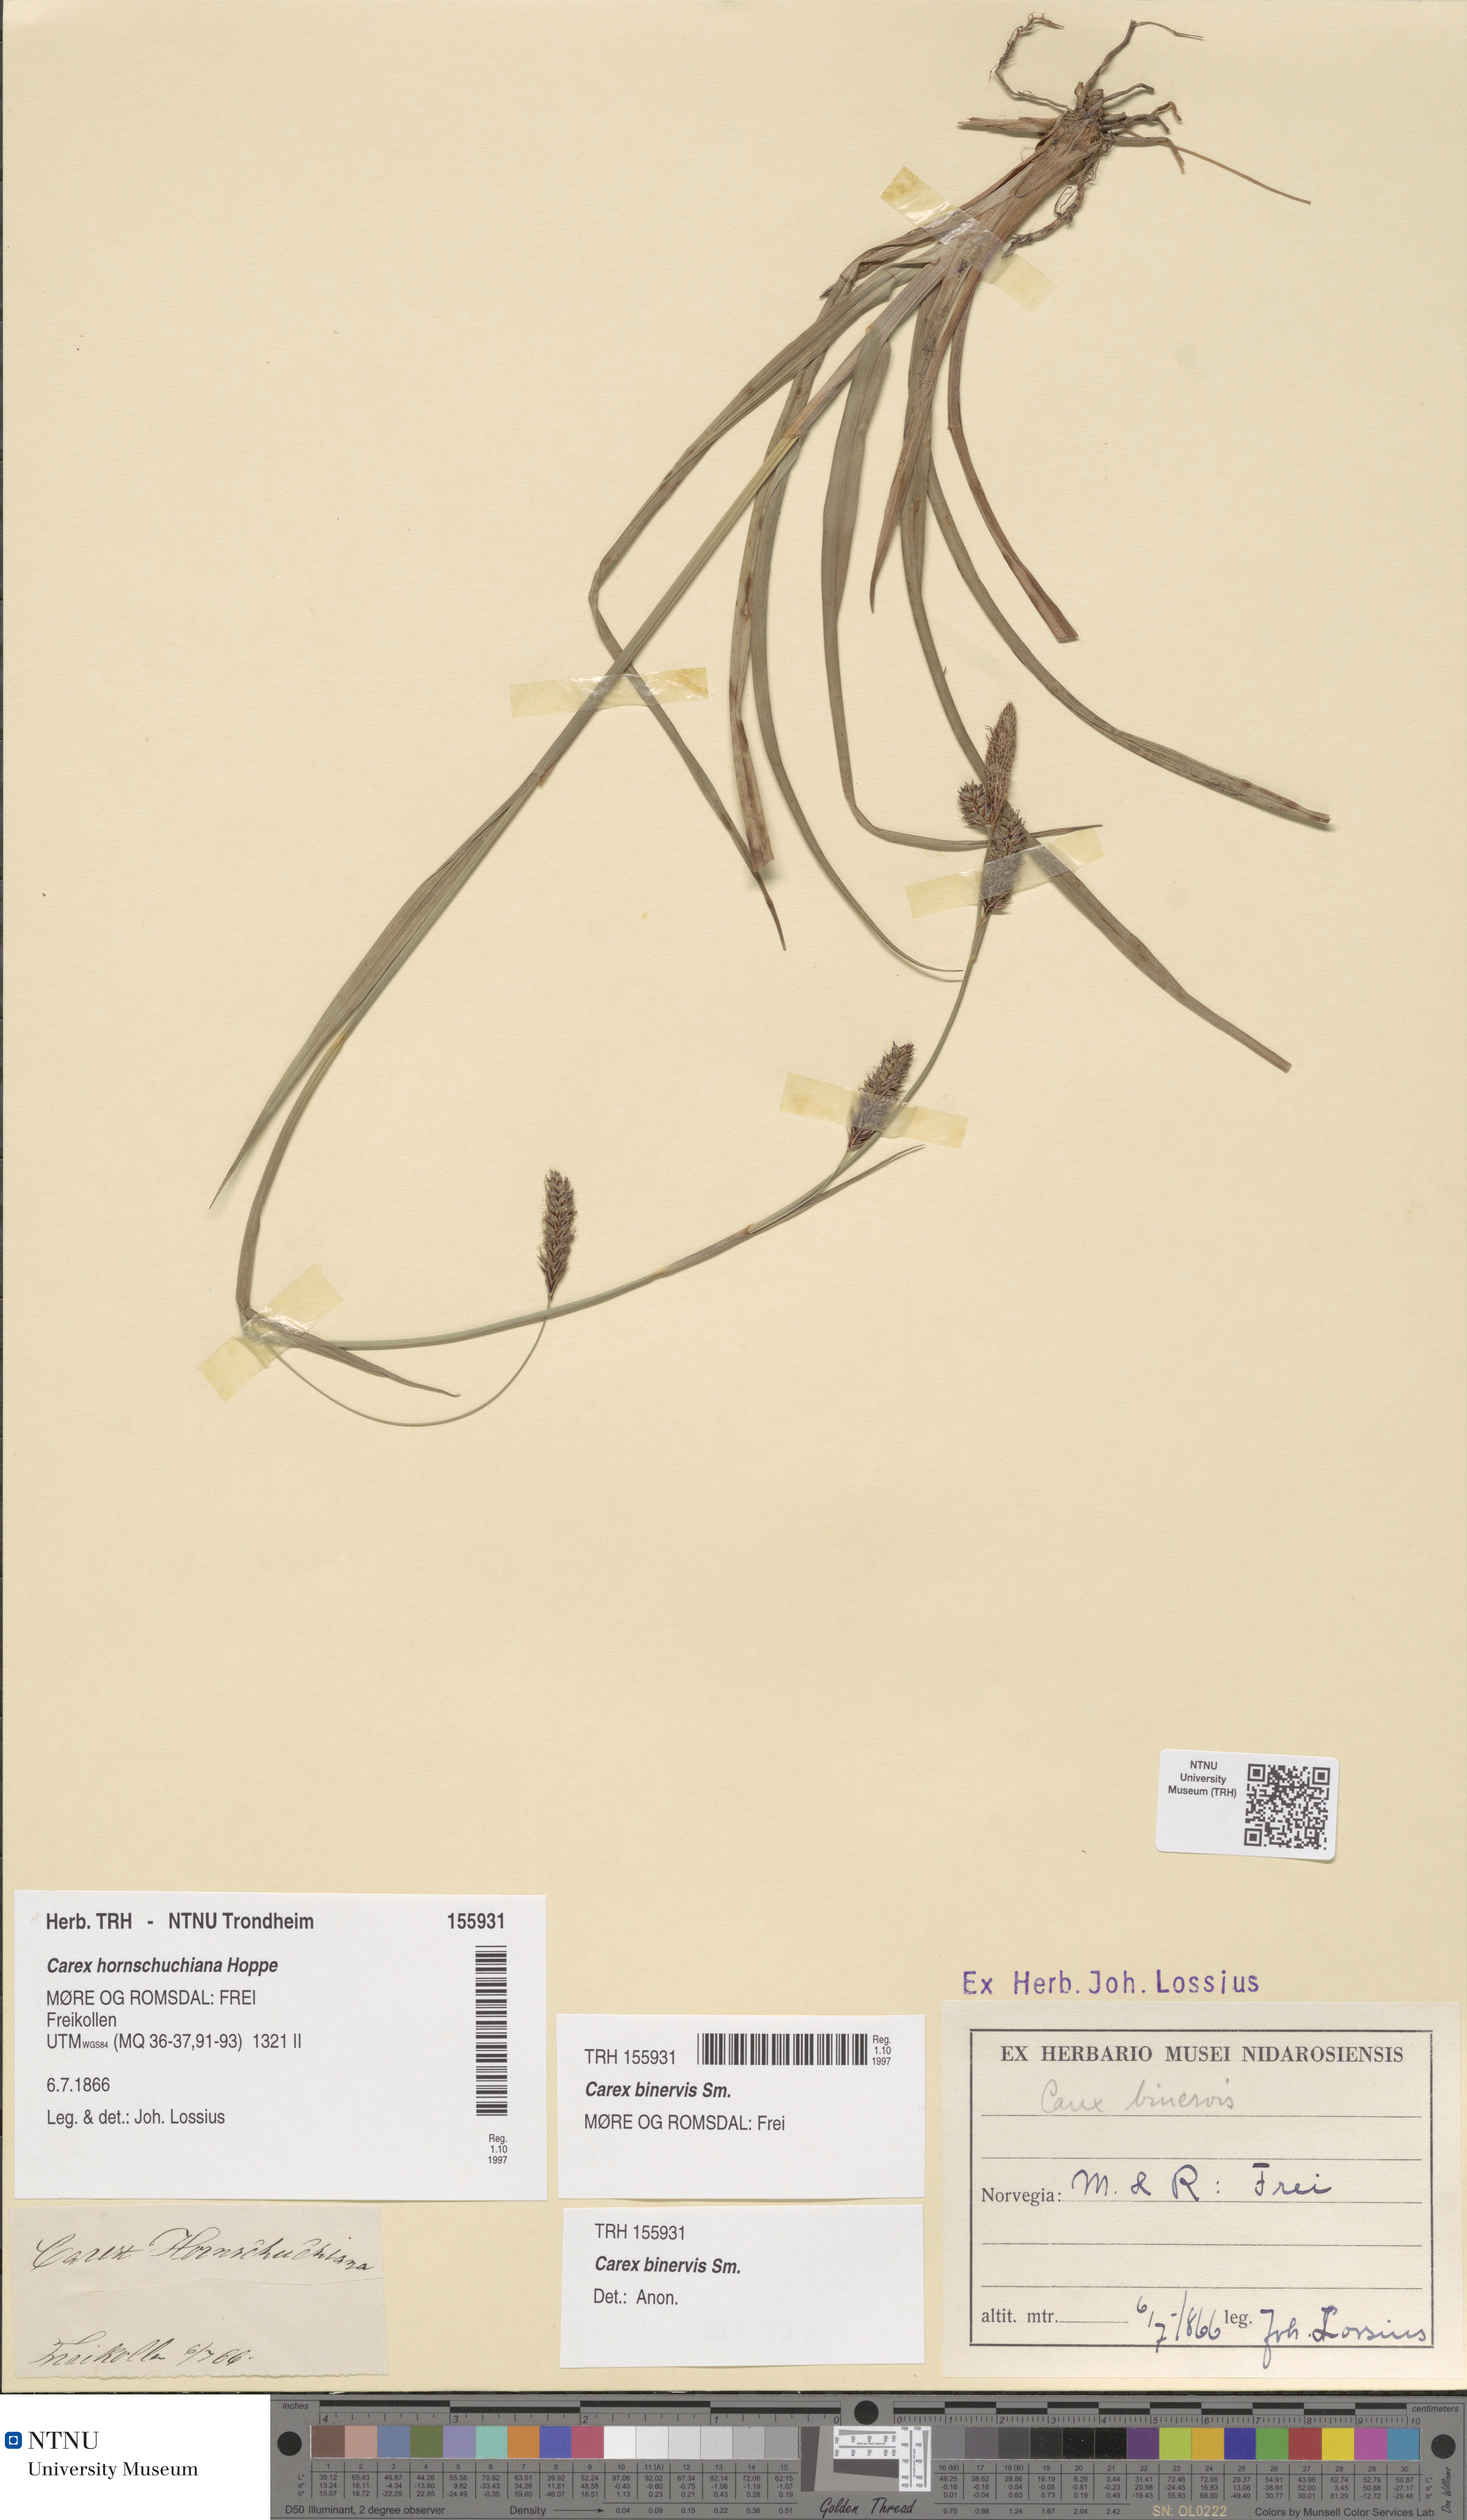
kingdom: Plantae
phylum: Tracheophyta
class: Liliopsida
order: Poales
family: Cyperaceae
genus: Carex
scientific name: Carex binervis
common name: Green-ribbed sedge
